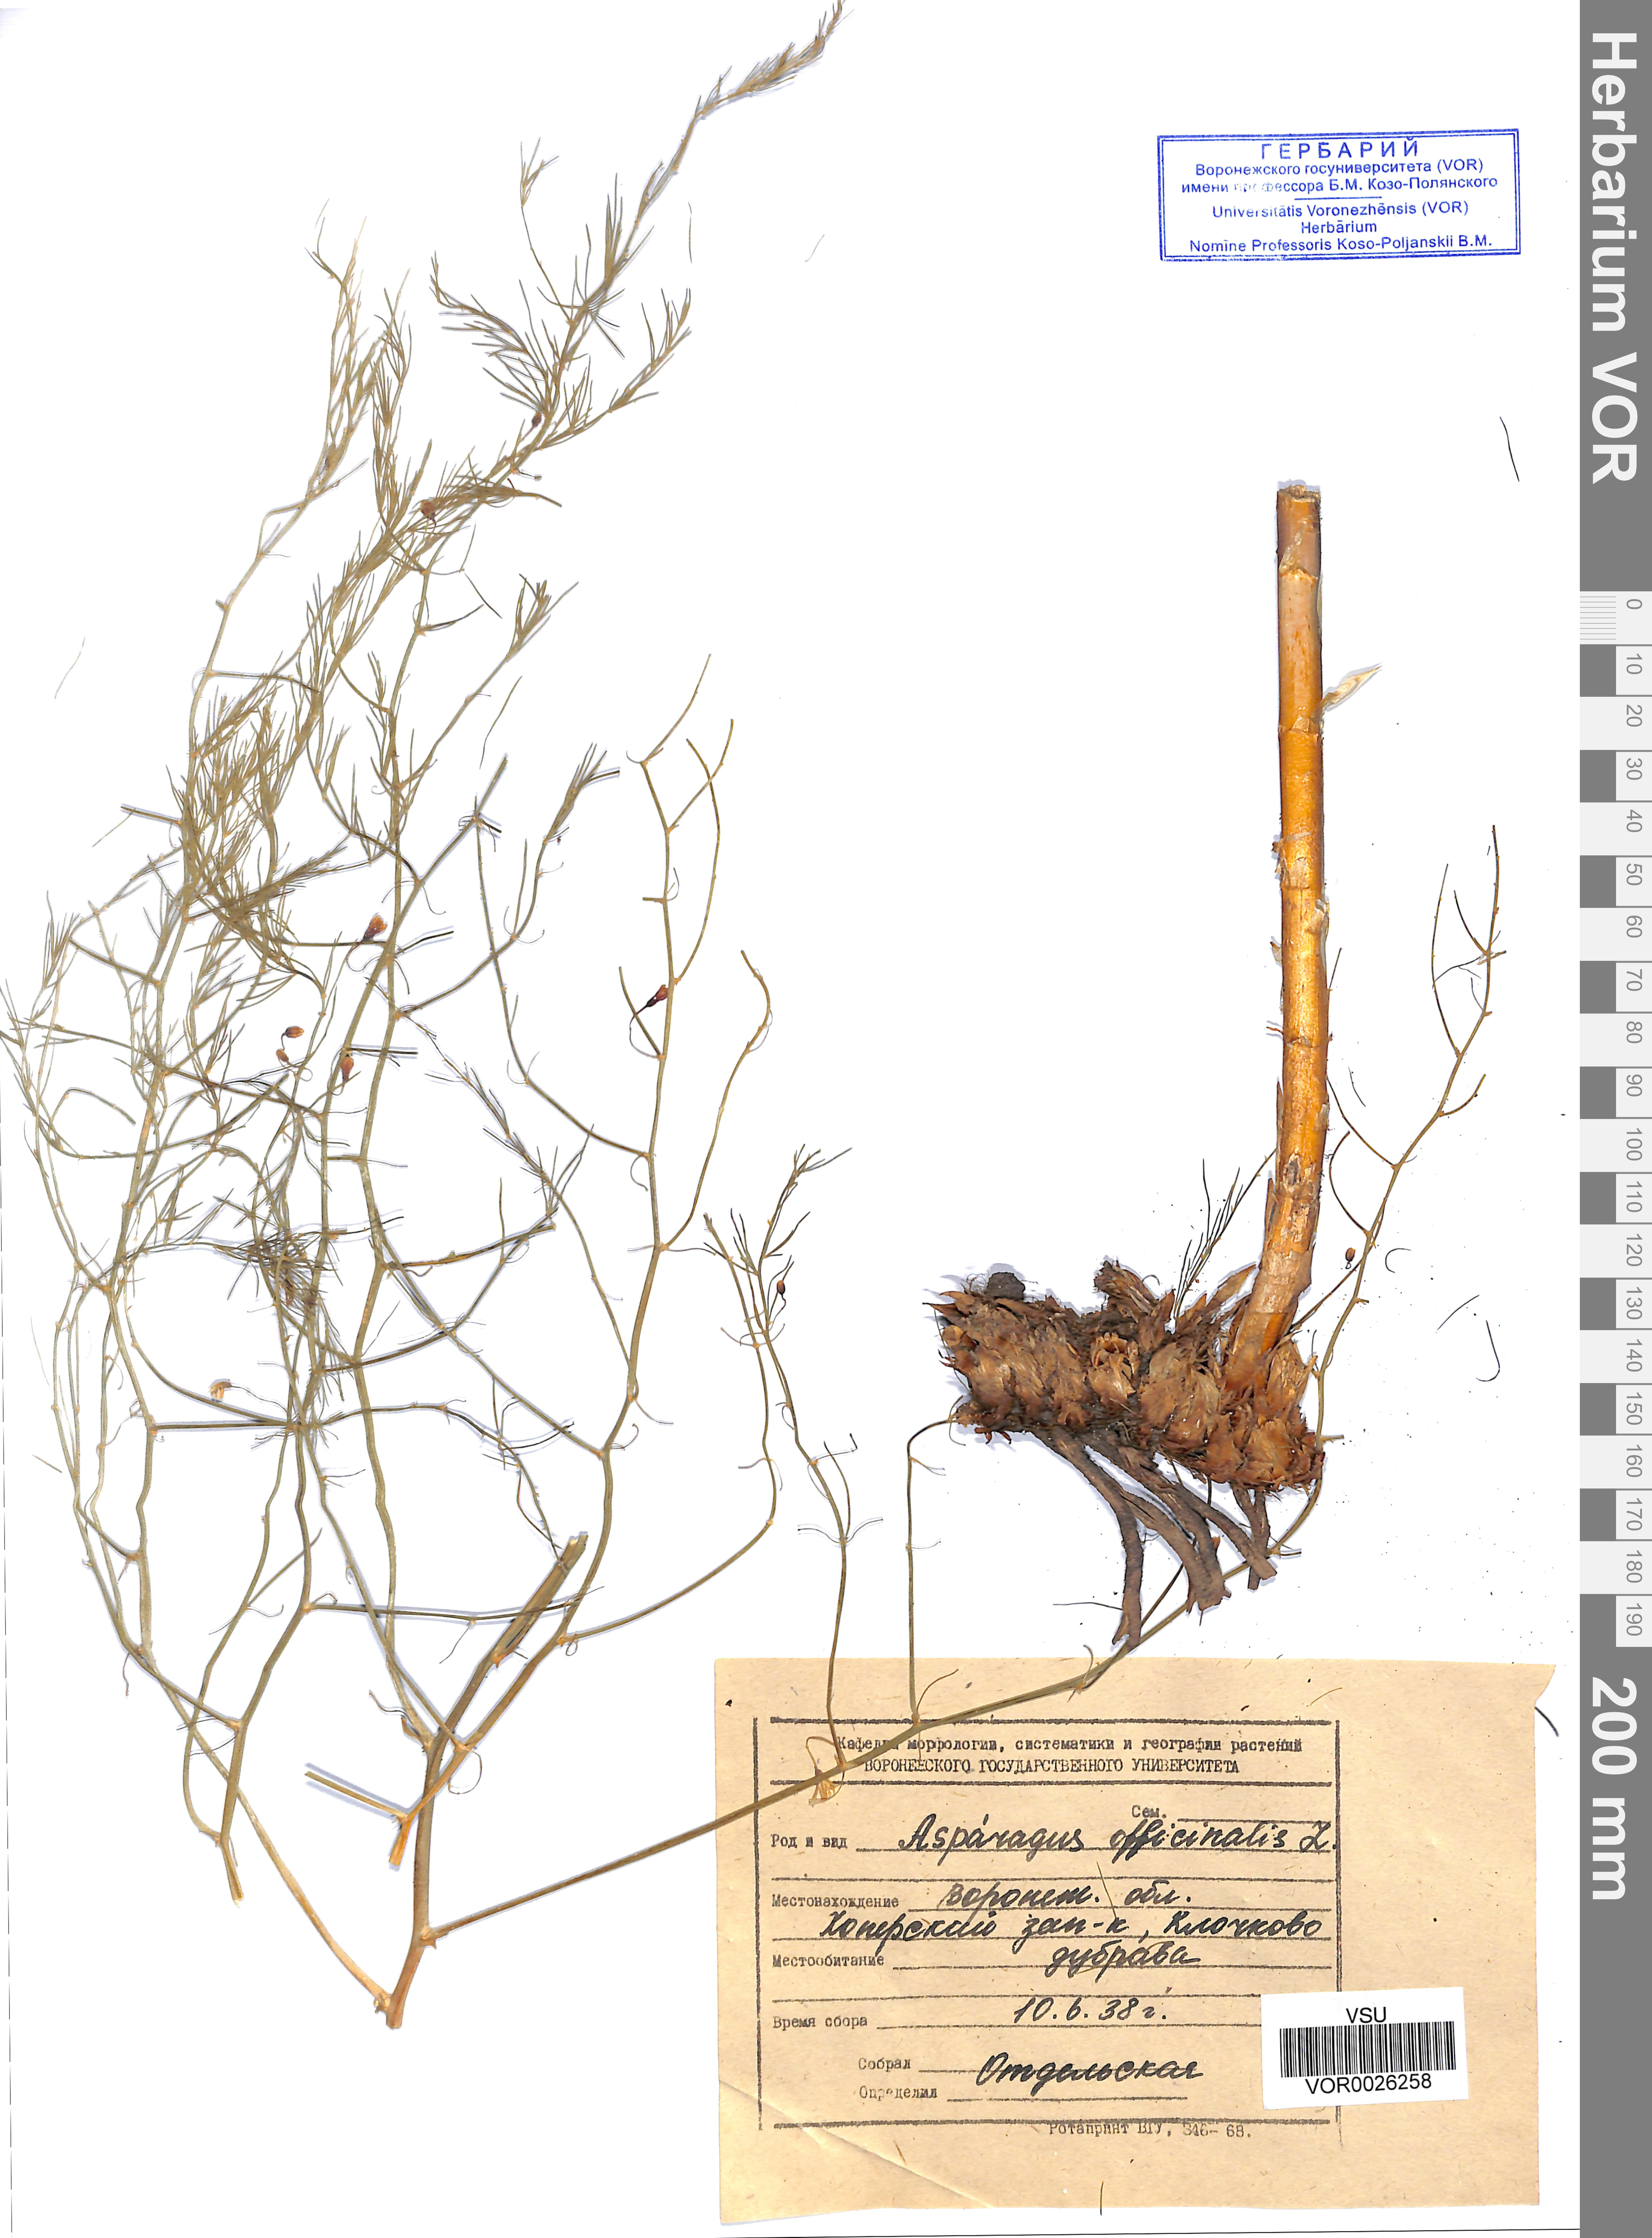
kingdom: Plantae
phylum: Tracheophyta
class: Liliopsida
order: Asparagales
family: Asparagaceae
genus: Asparagus
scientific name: Asparagus officinalis
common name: Garden asparagus
